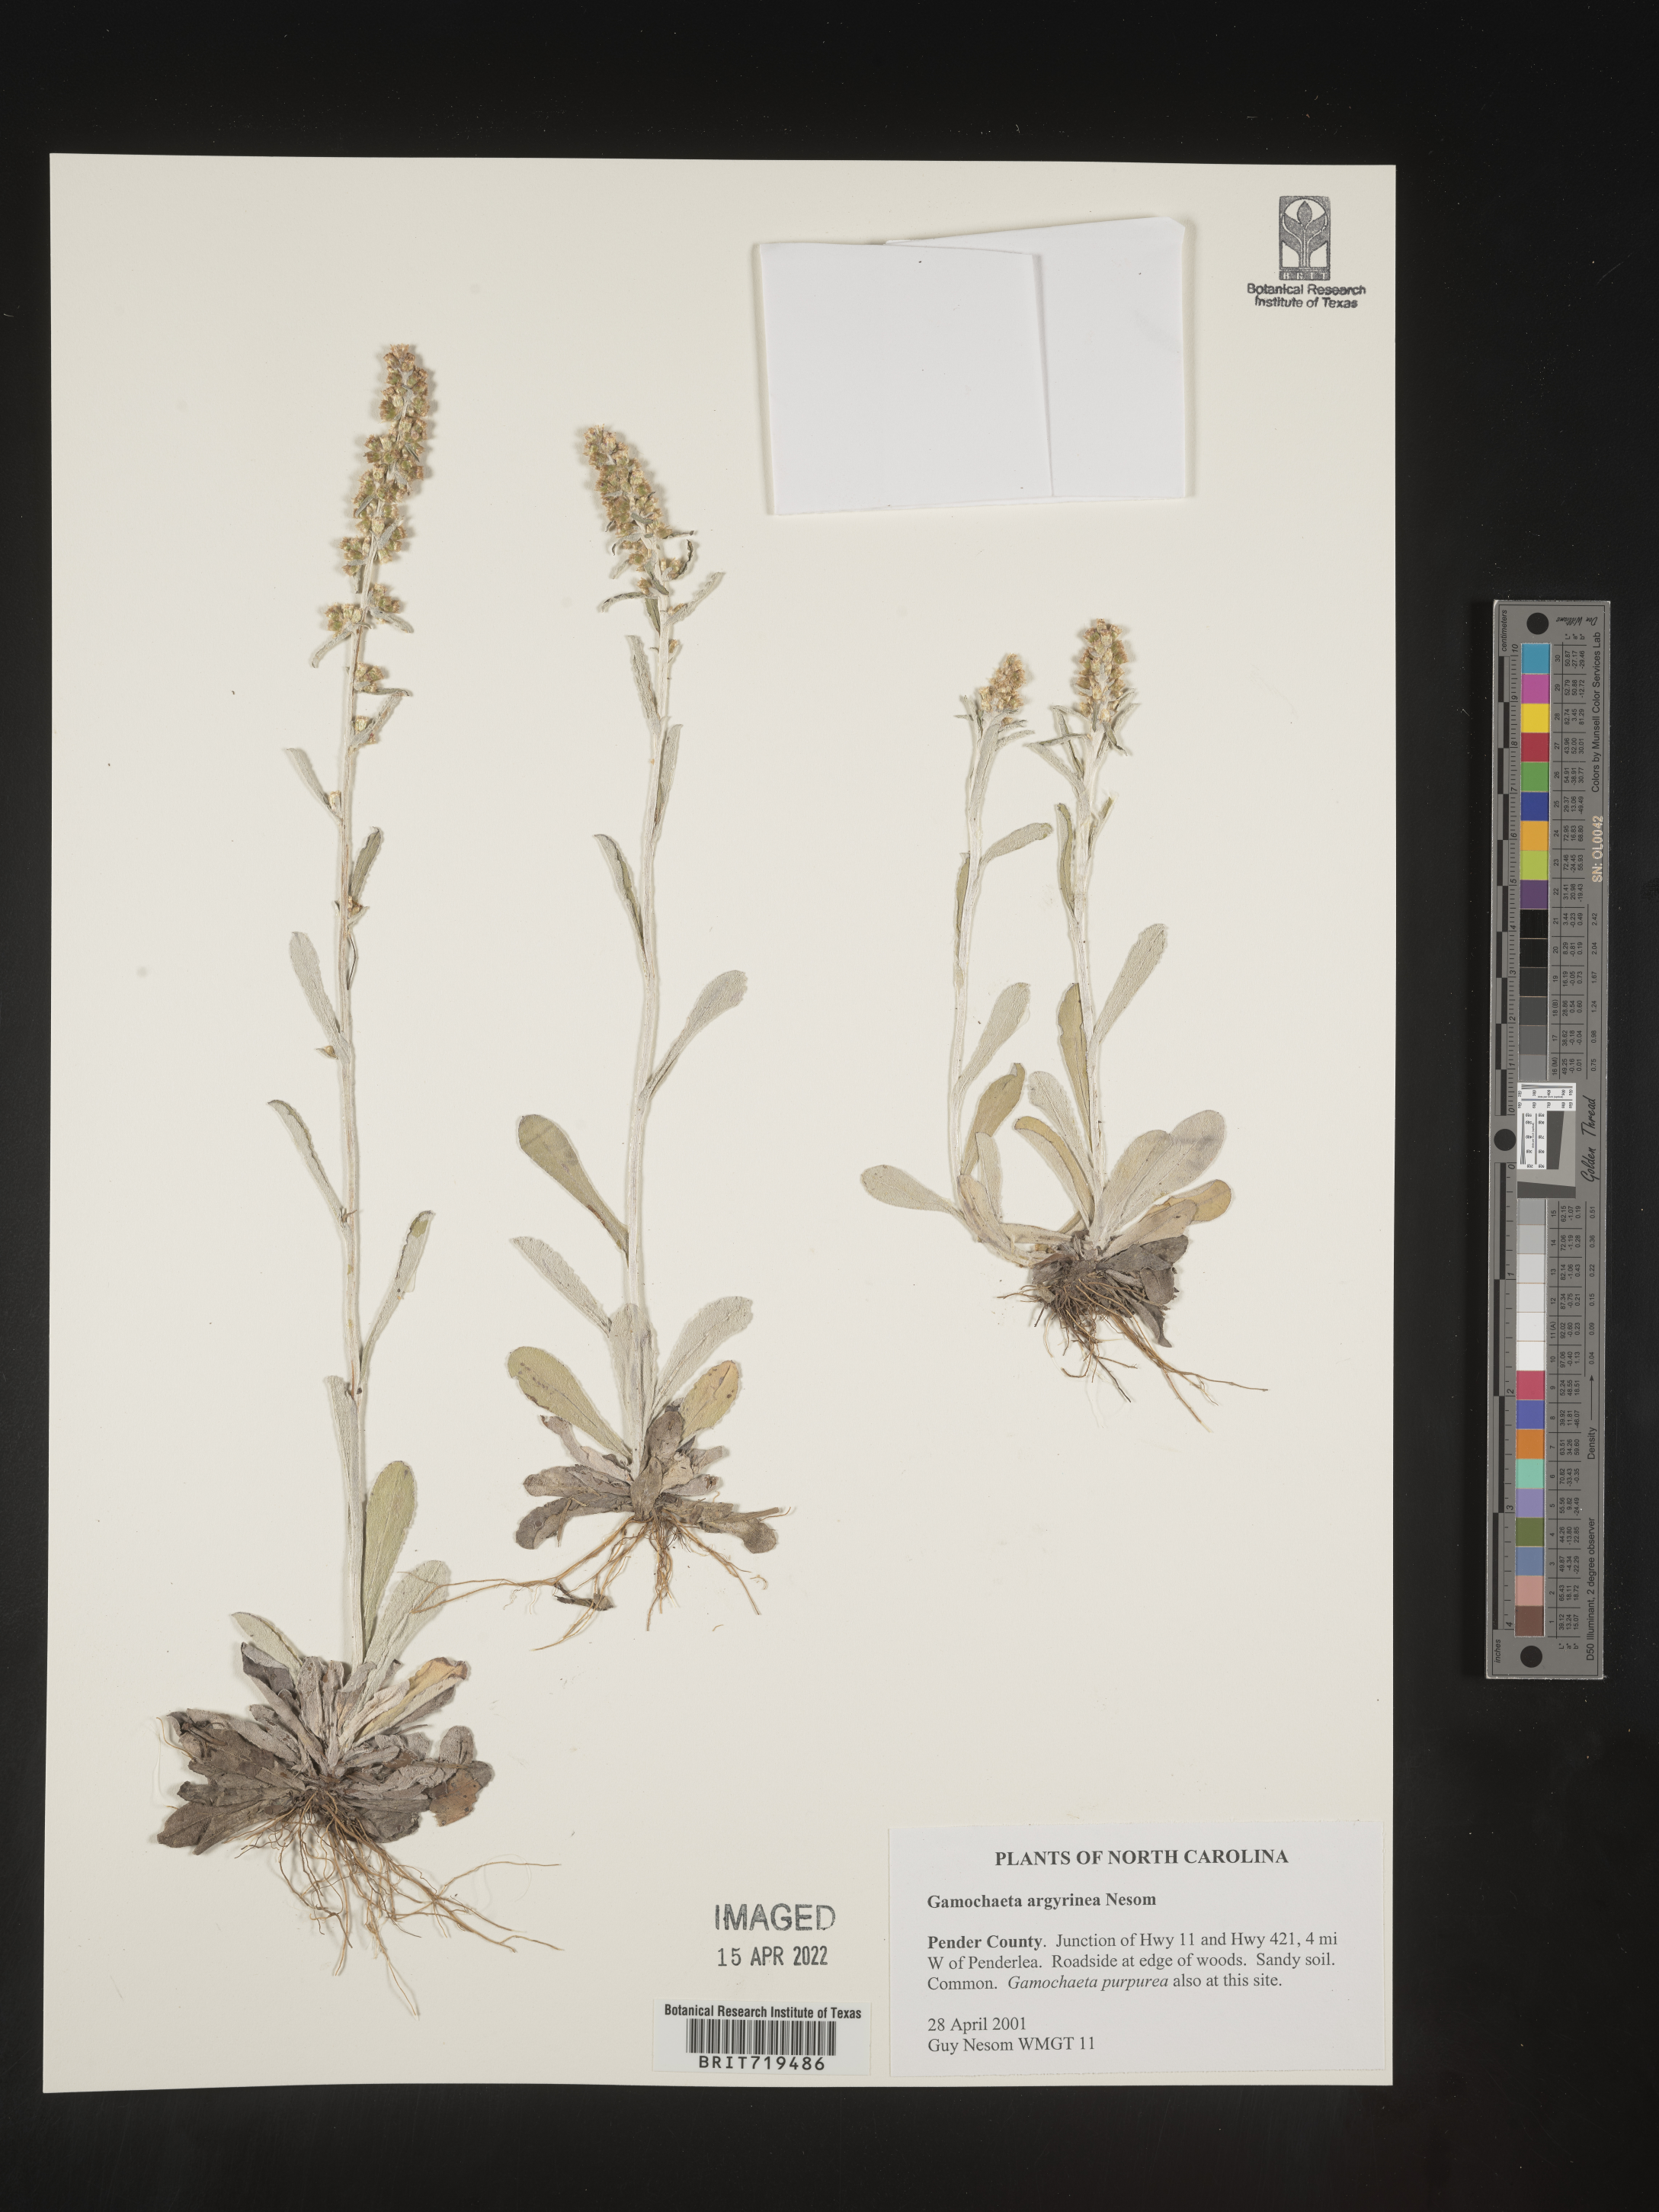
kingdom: Plantae
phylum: Tracheophyta
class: Magnoliopsida
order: Asterales
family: Asteraceae
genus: Gamochaeta
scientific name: Gamochaeta argyrinea
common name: Silvery cudweed
